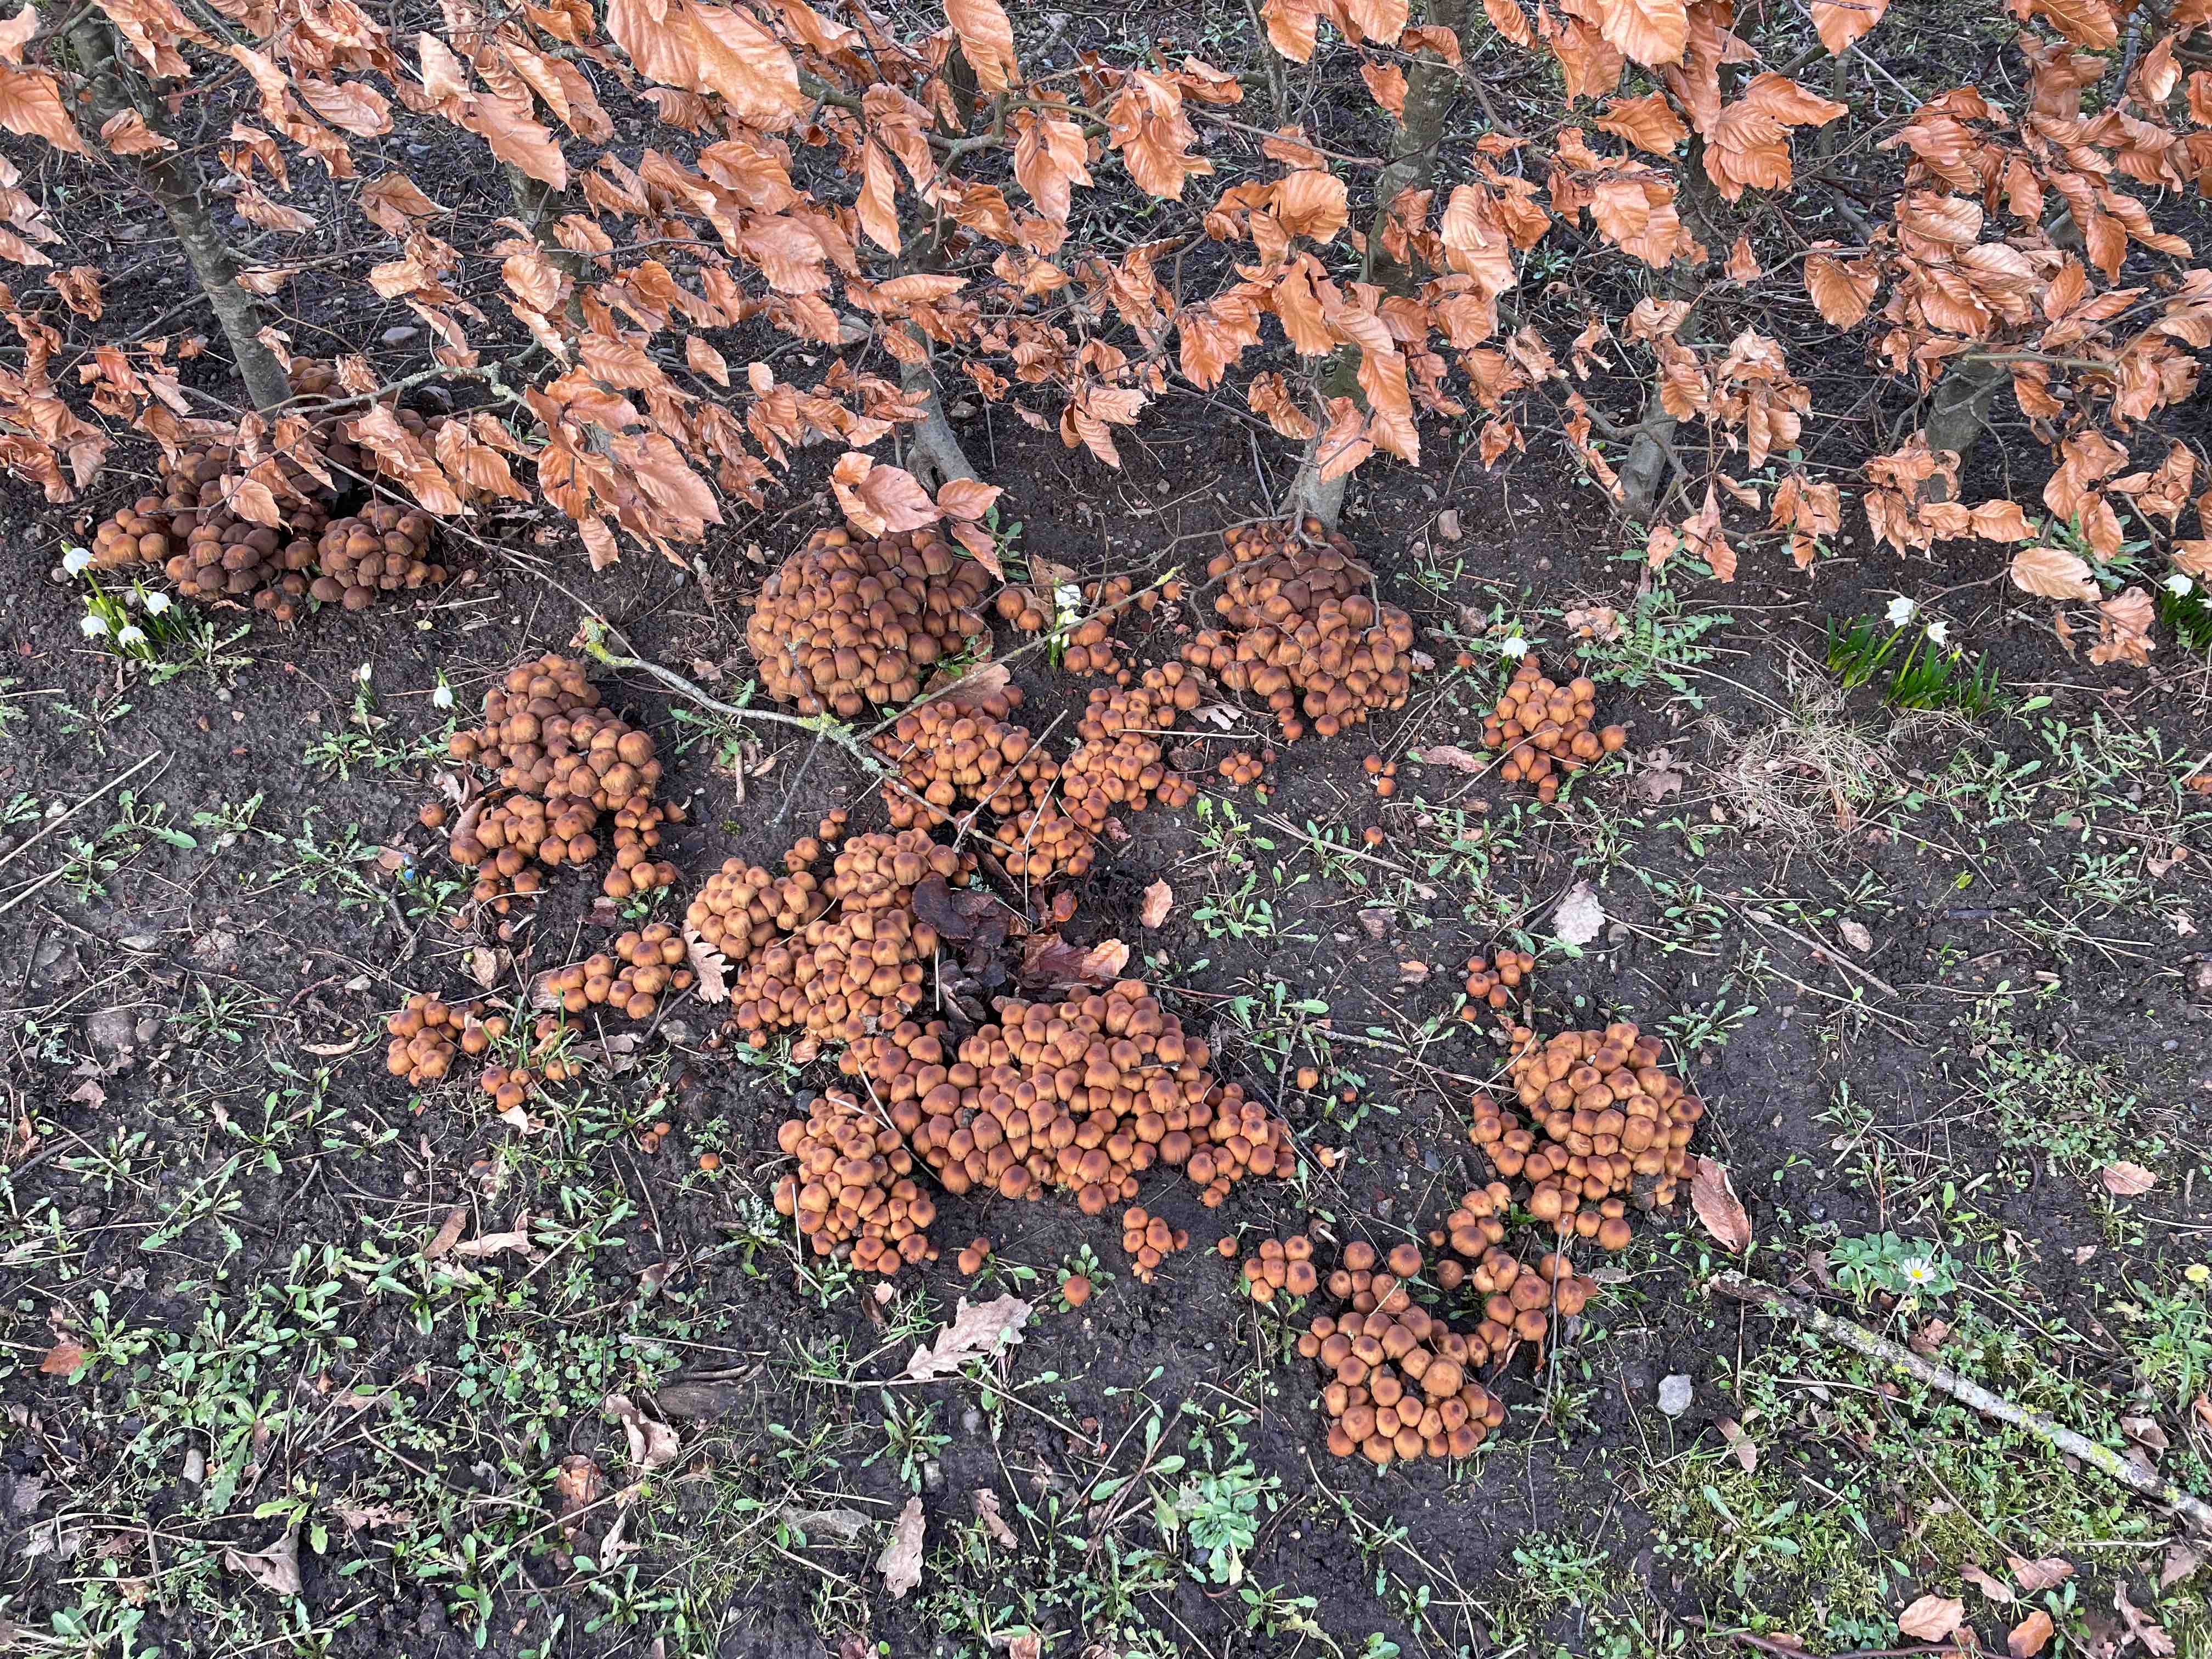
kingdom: Fungi
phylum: Basidiomycota
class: Agaricomycetes
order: Agaricales
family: Psathyrellaceae
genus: Coprinellus
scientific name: Coprinellus micaceus
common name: glimmer-blækhat
